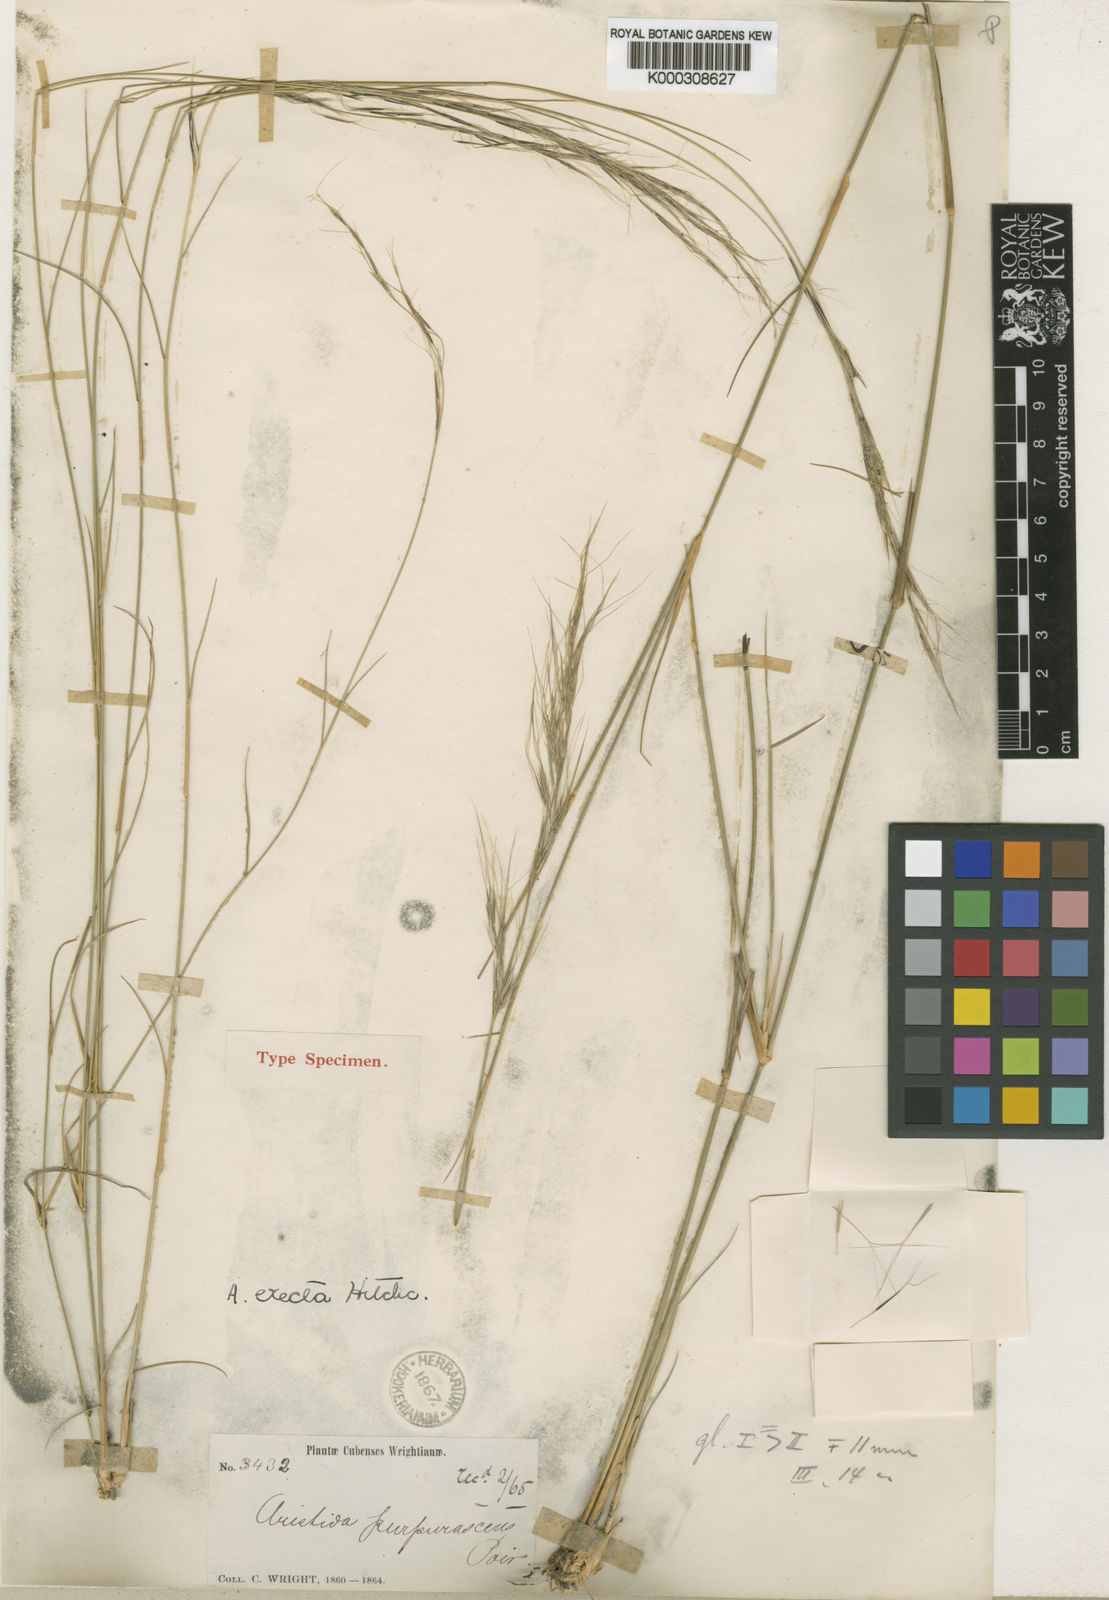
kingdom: Plantae
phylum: Tracheophyta
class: Liliopsida
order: Poales
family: Poaceae
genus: Aristida
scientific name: Aristida erecta
